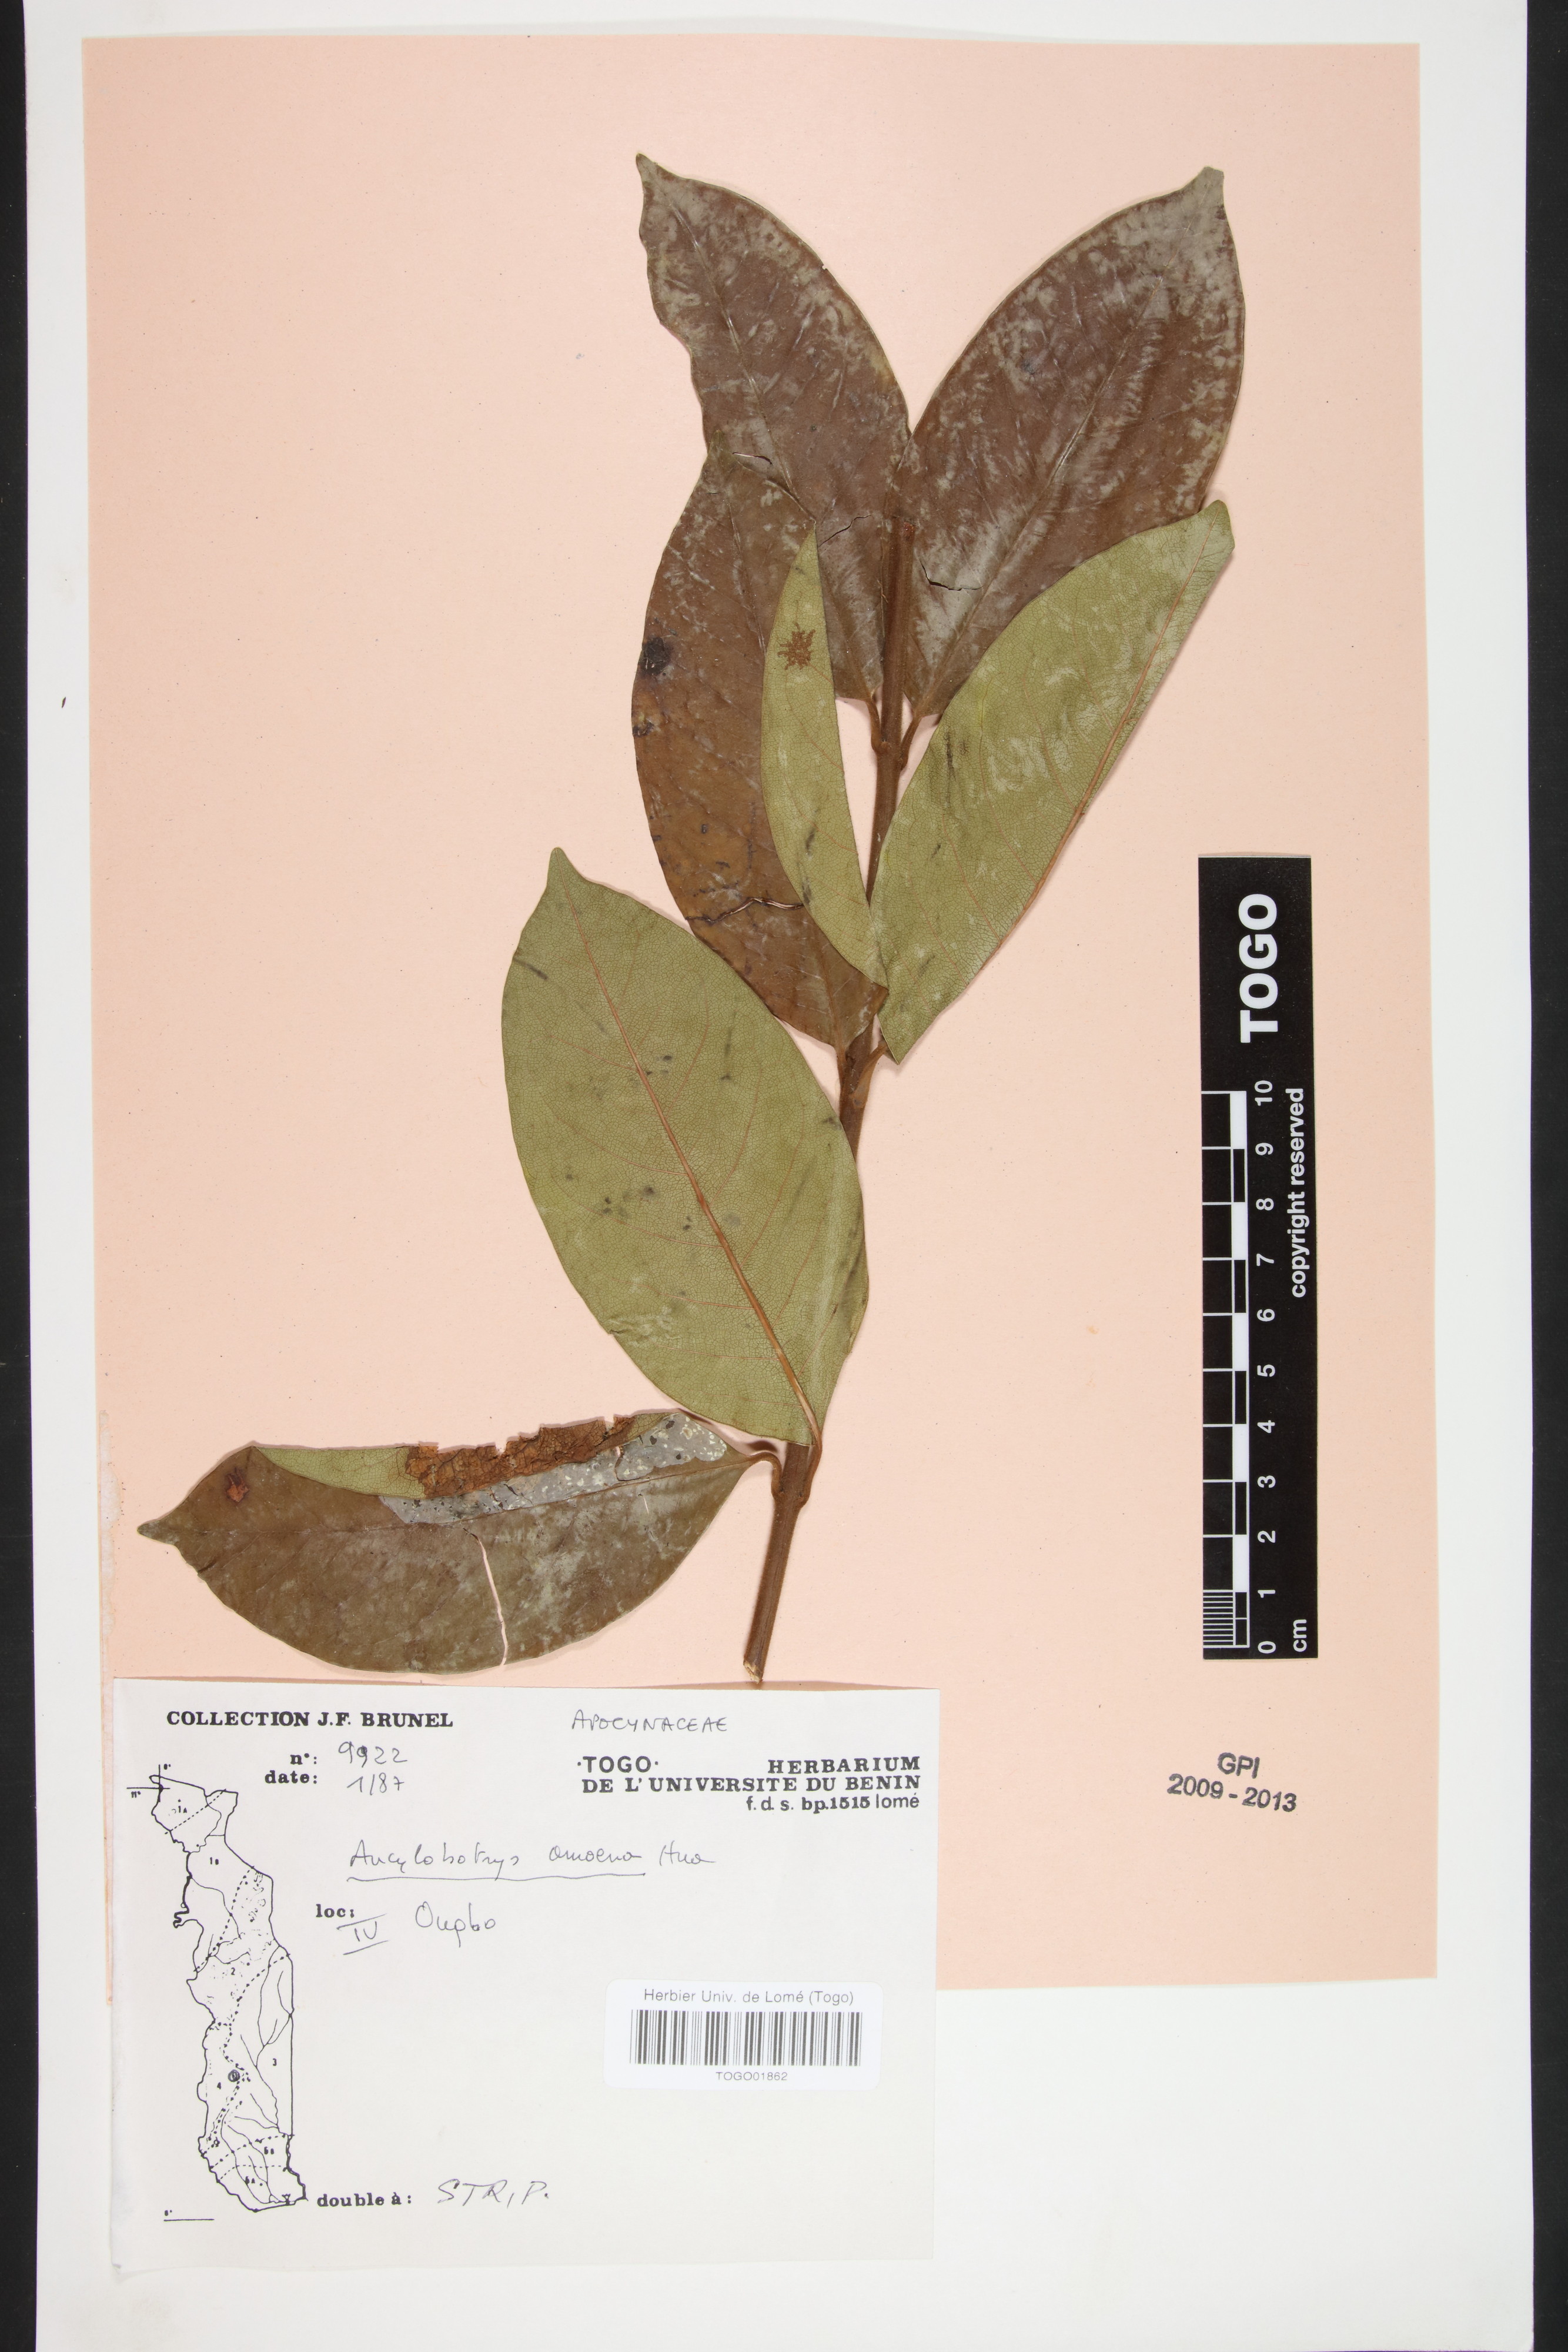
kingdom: Plantae
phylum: Tracheophyta
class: Magnoliopsida
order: Gentianales
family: Apocynaceae
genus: Ancylobothrys
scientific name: Ancylobothrys amoena
